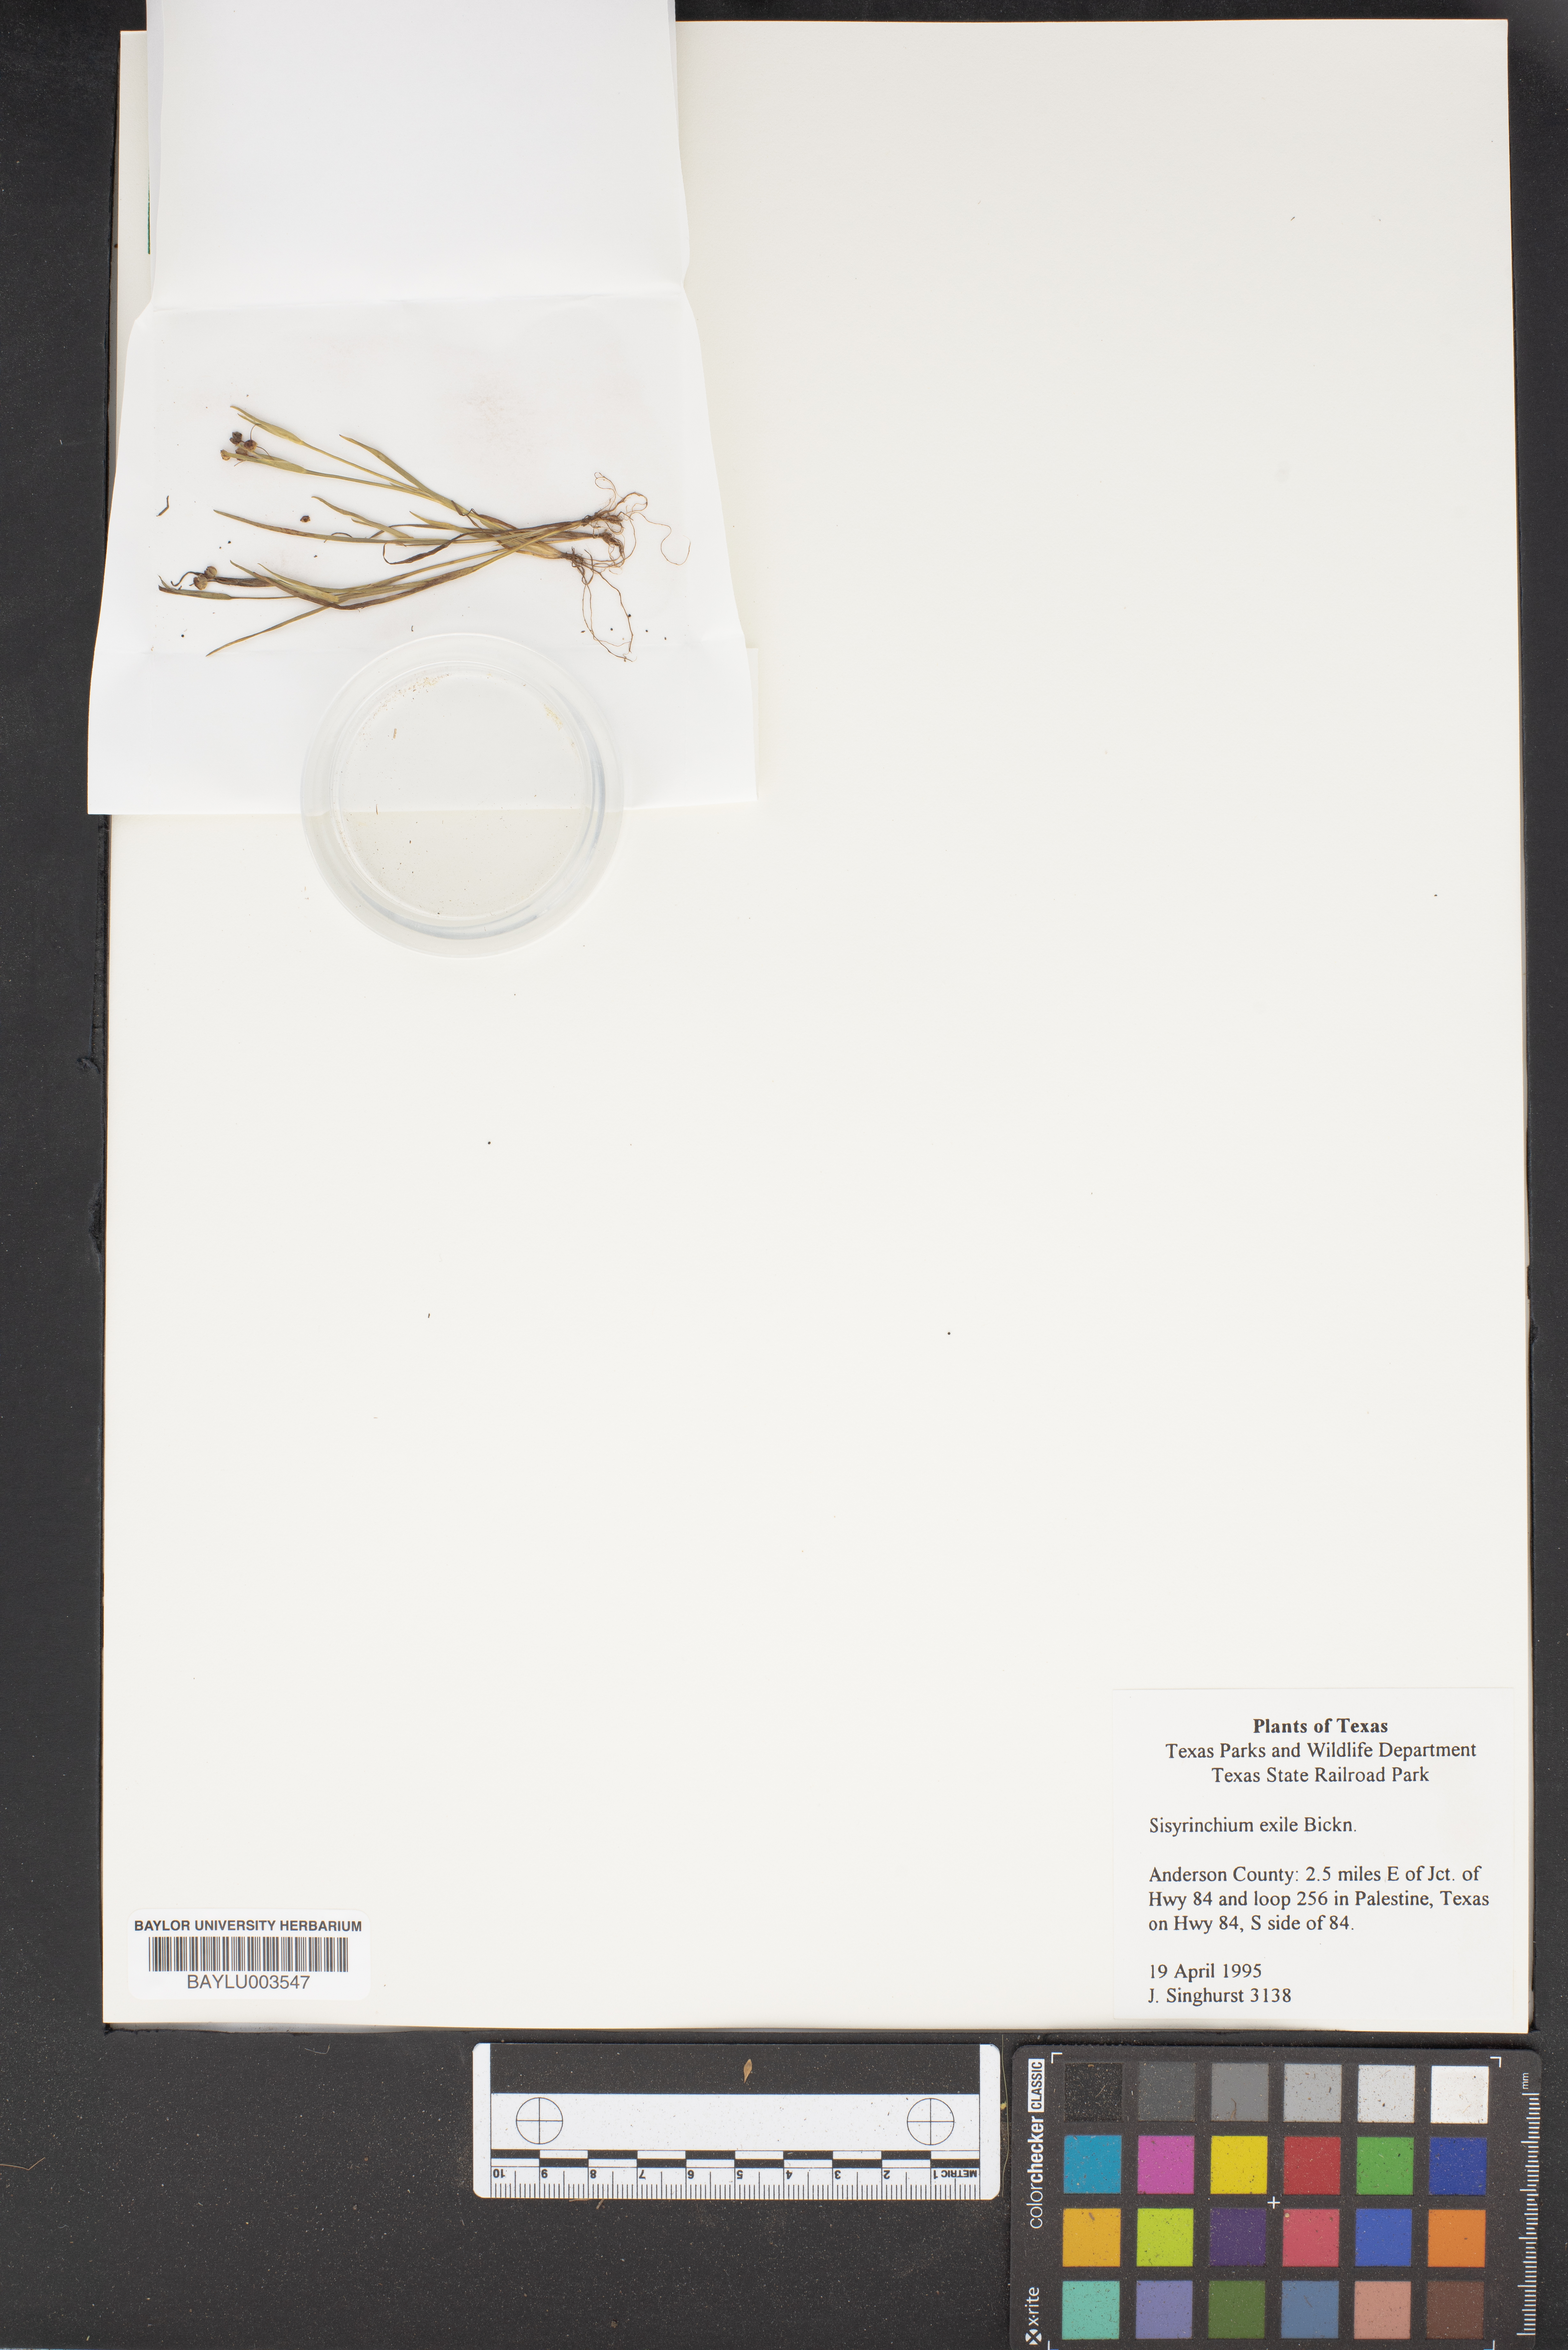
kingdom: Plantae
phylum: Tracheophyta
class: Liliopsida
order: Asparagales
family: Iridaceae
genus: Sisyrinchium
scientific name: Sisyrinchium rosulatum
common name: Annual blue-eyed grass
